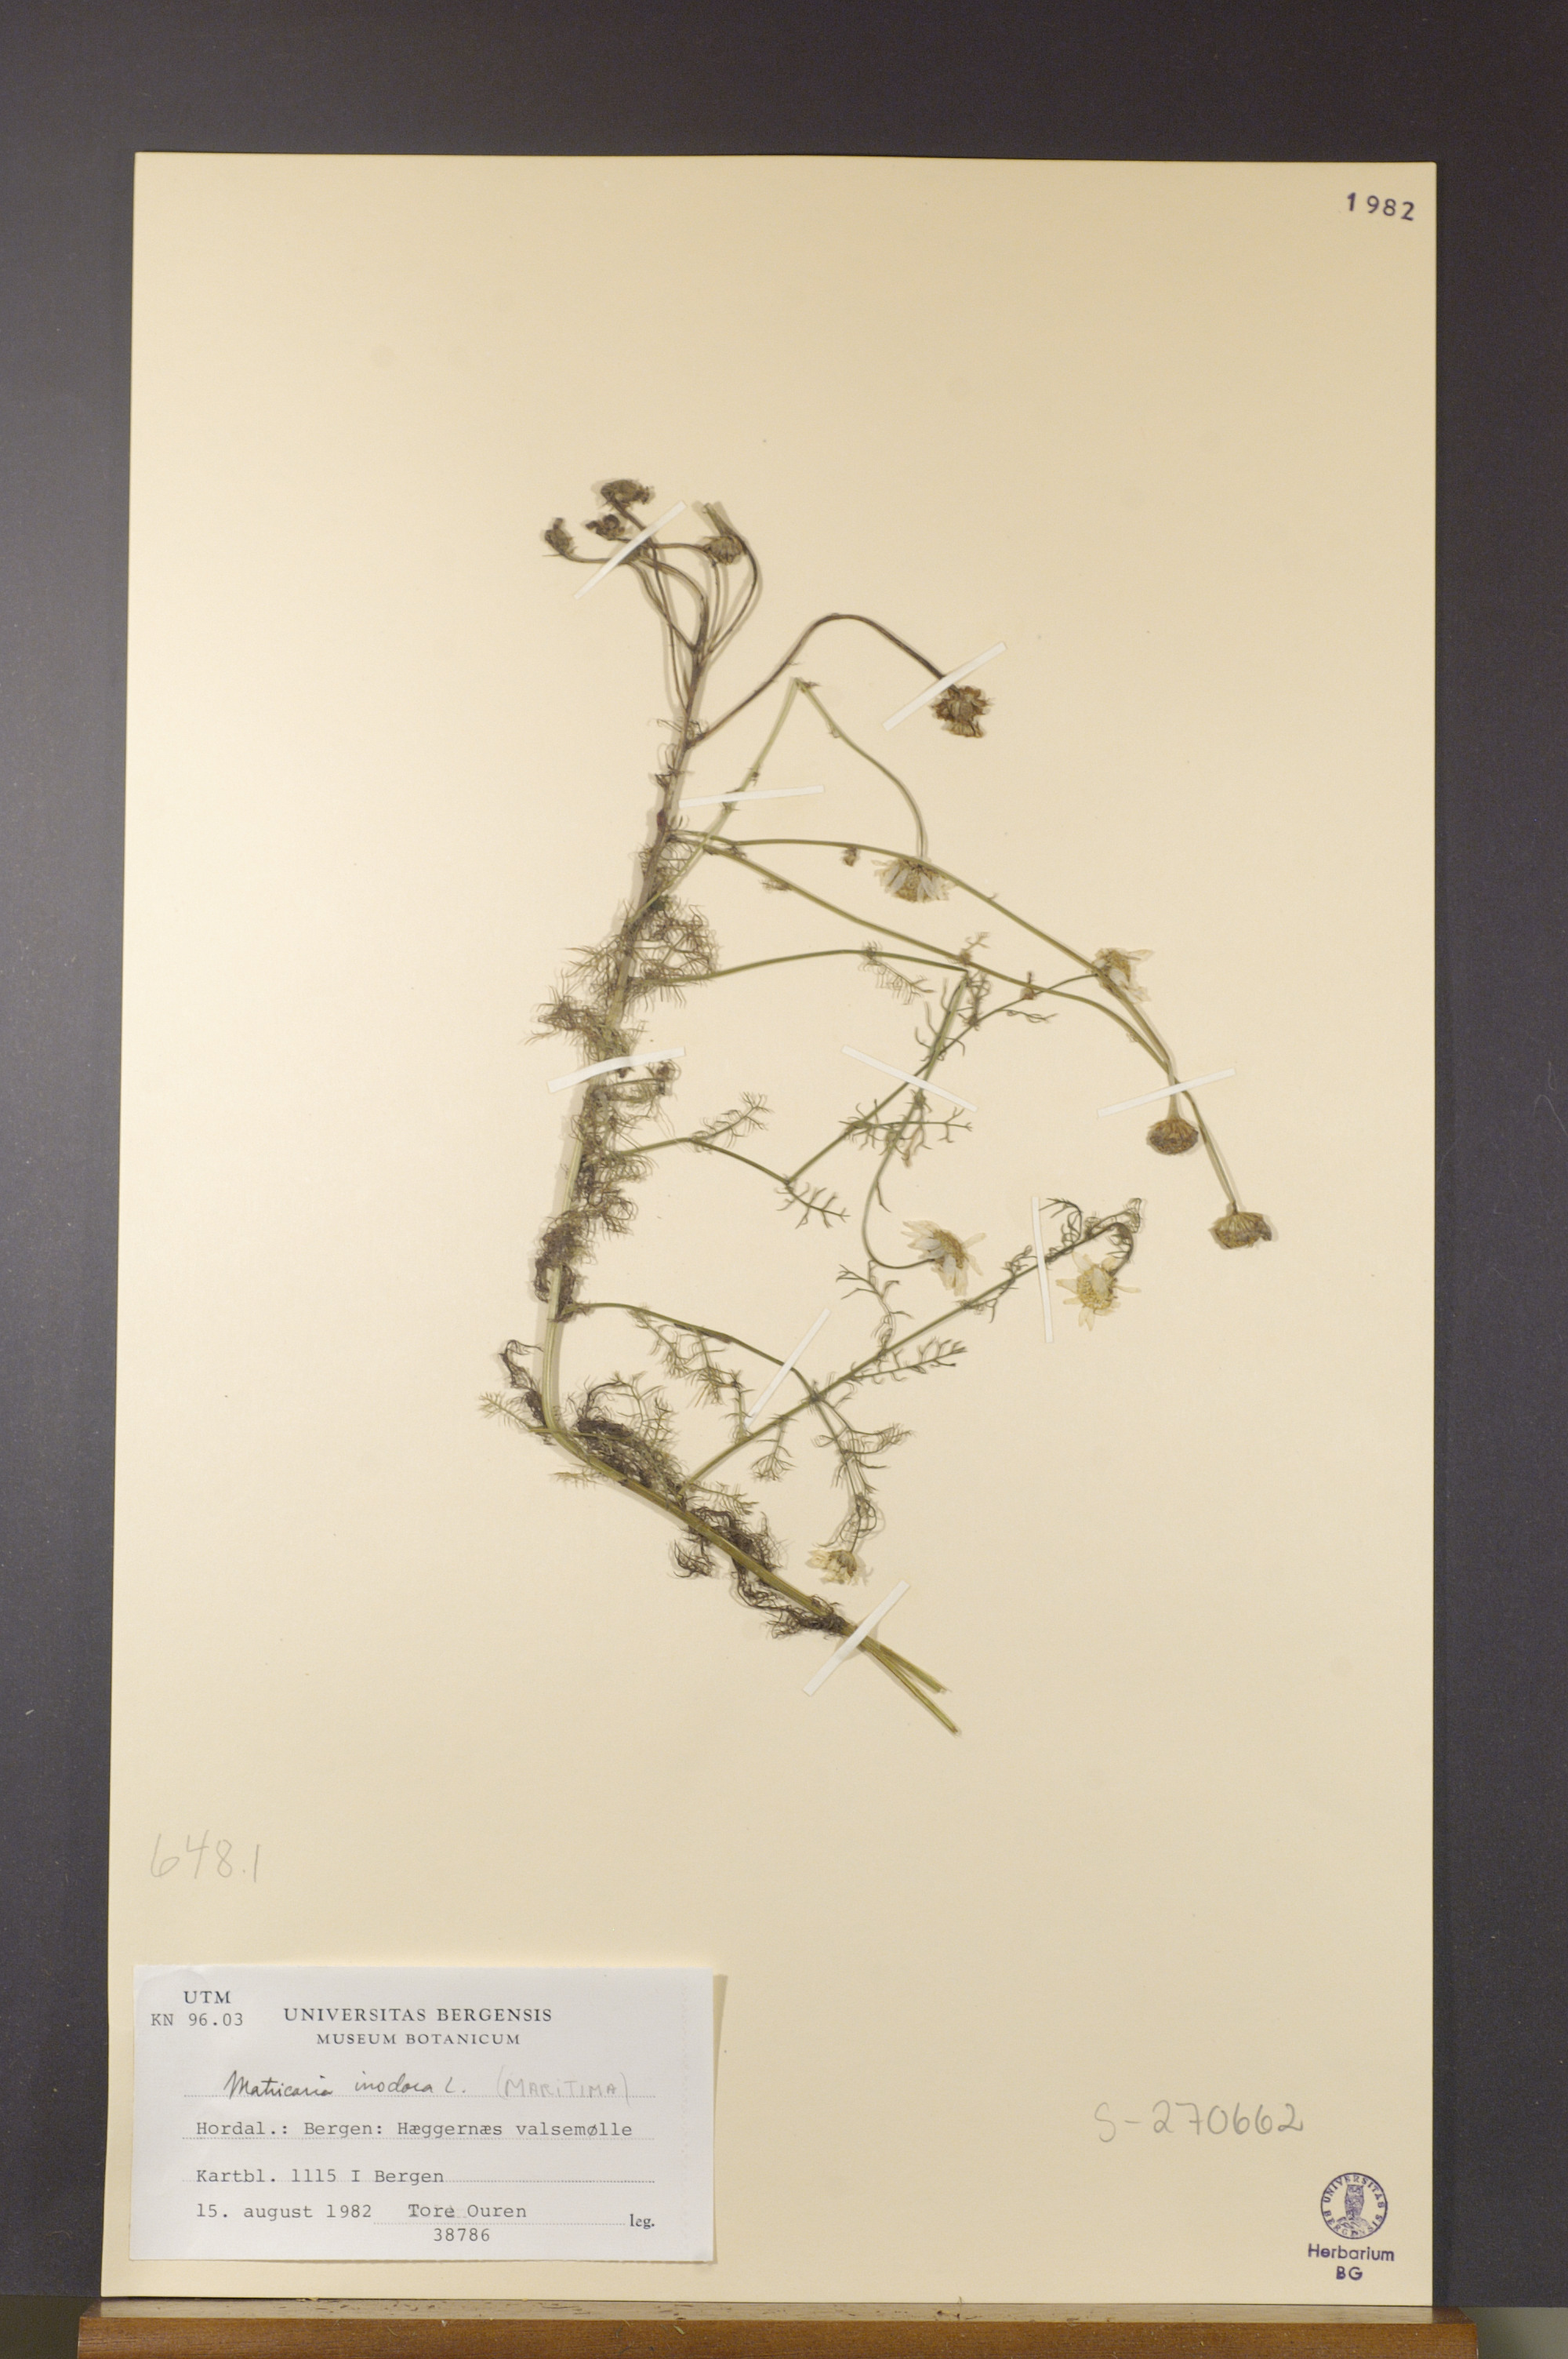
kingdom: Plantae
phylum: Tracheophyta
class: Magnoliopsida
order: Asterales
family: Asteraceae
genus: Tripleurospermum
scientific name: Tripleurospermum inodorum
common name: Scentless mayweed
